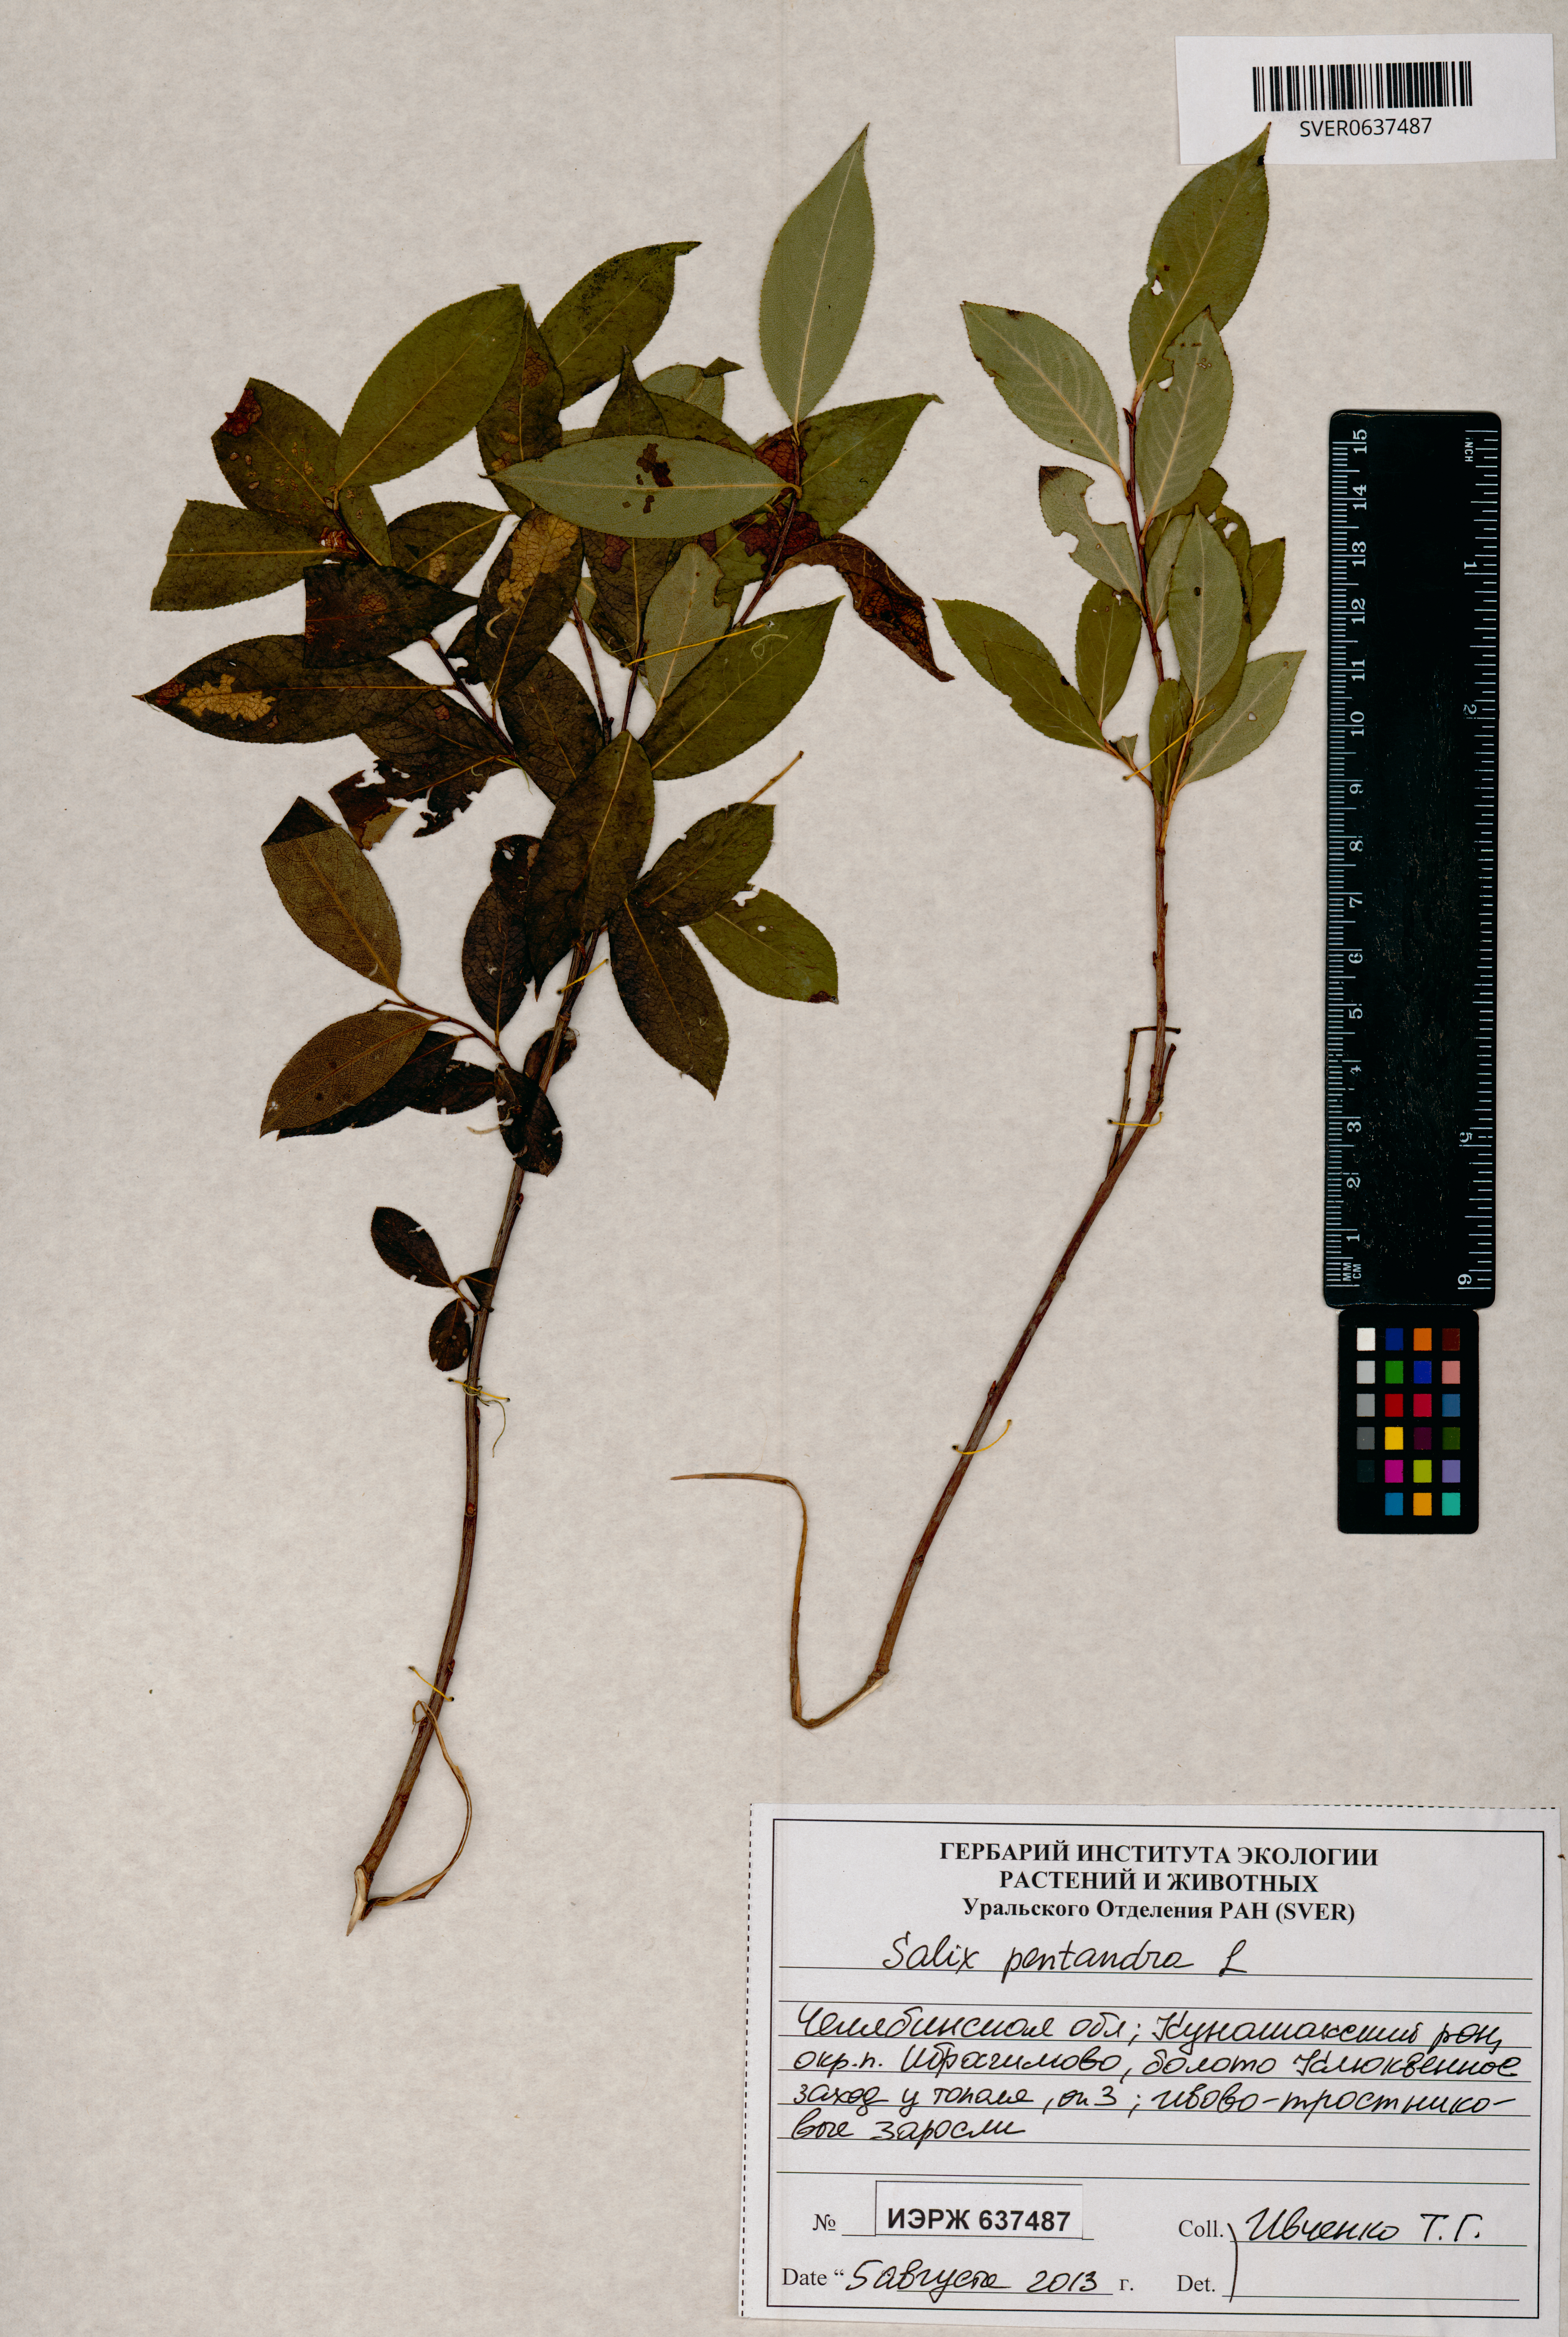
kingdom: Plantae
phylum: Tracheophyta
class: Magnoliopsida
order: Malpighiales
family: Salicaceae
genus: Salix
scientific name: Salix pentandra
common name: Bay willow
